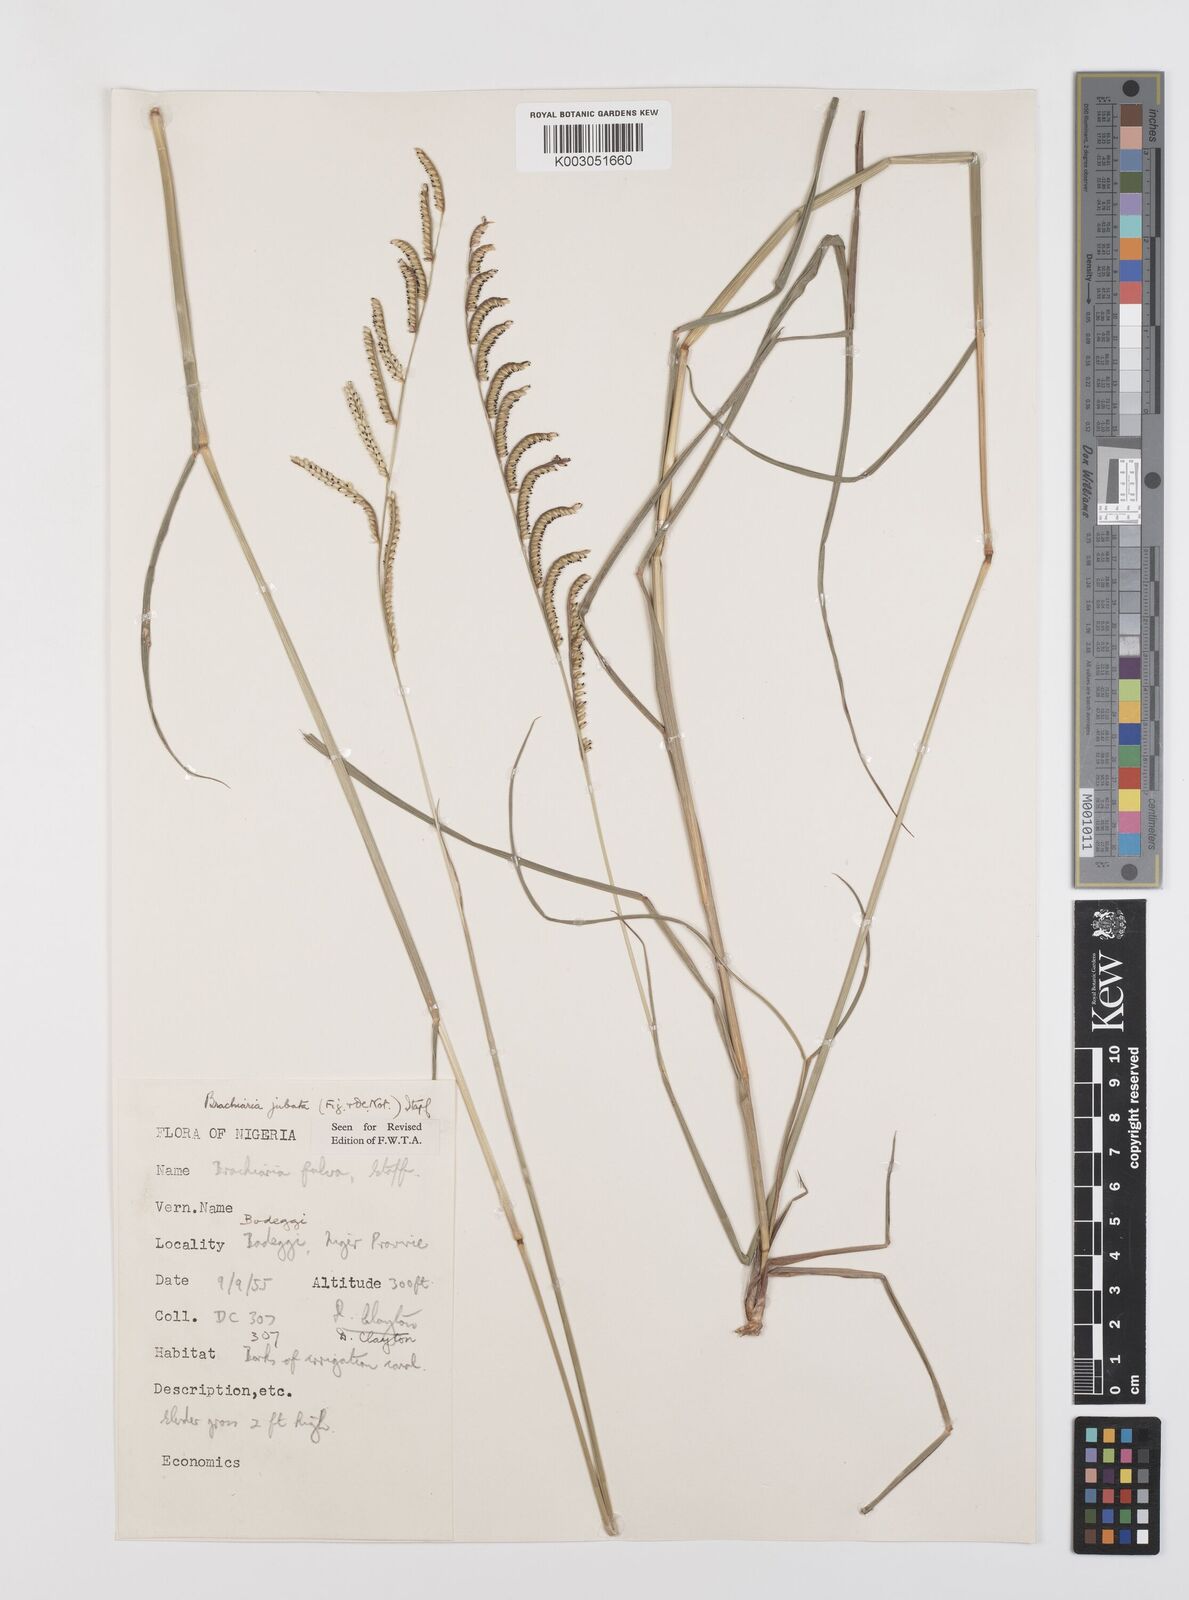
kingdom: Plantae
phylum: Tracheophyta
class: Liliopsida
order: Poales
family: Poaceae
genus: Urochloa
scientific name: Urochloa jubata
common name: Buffalograss
